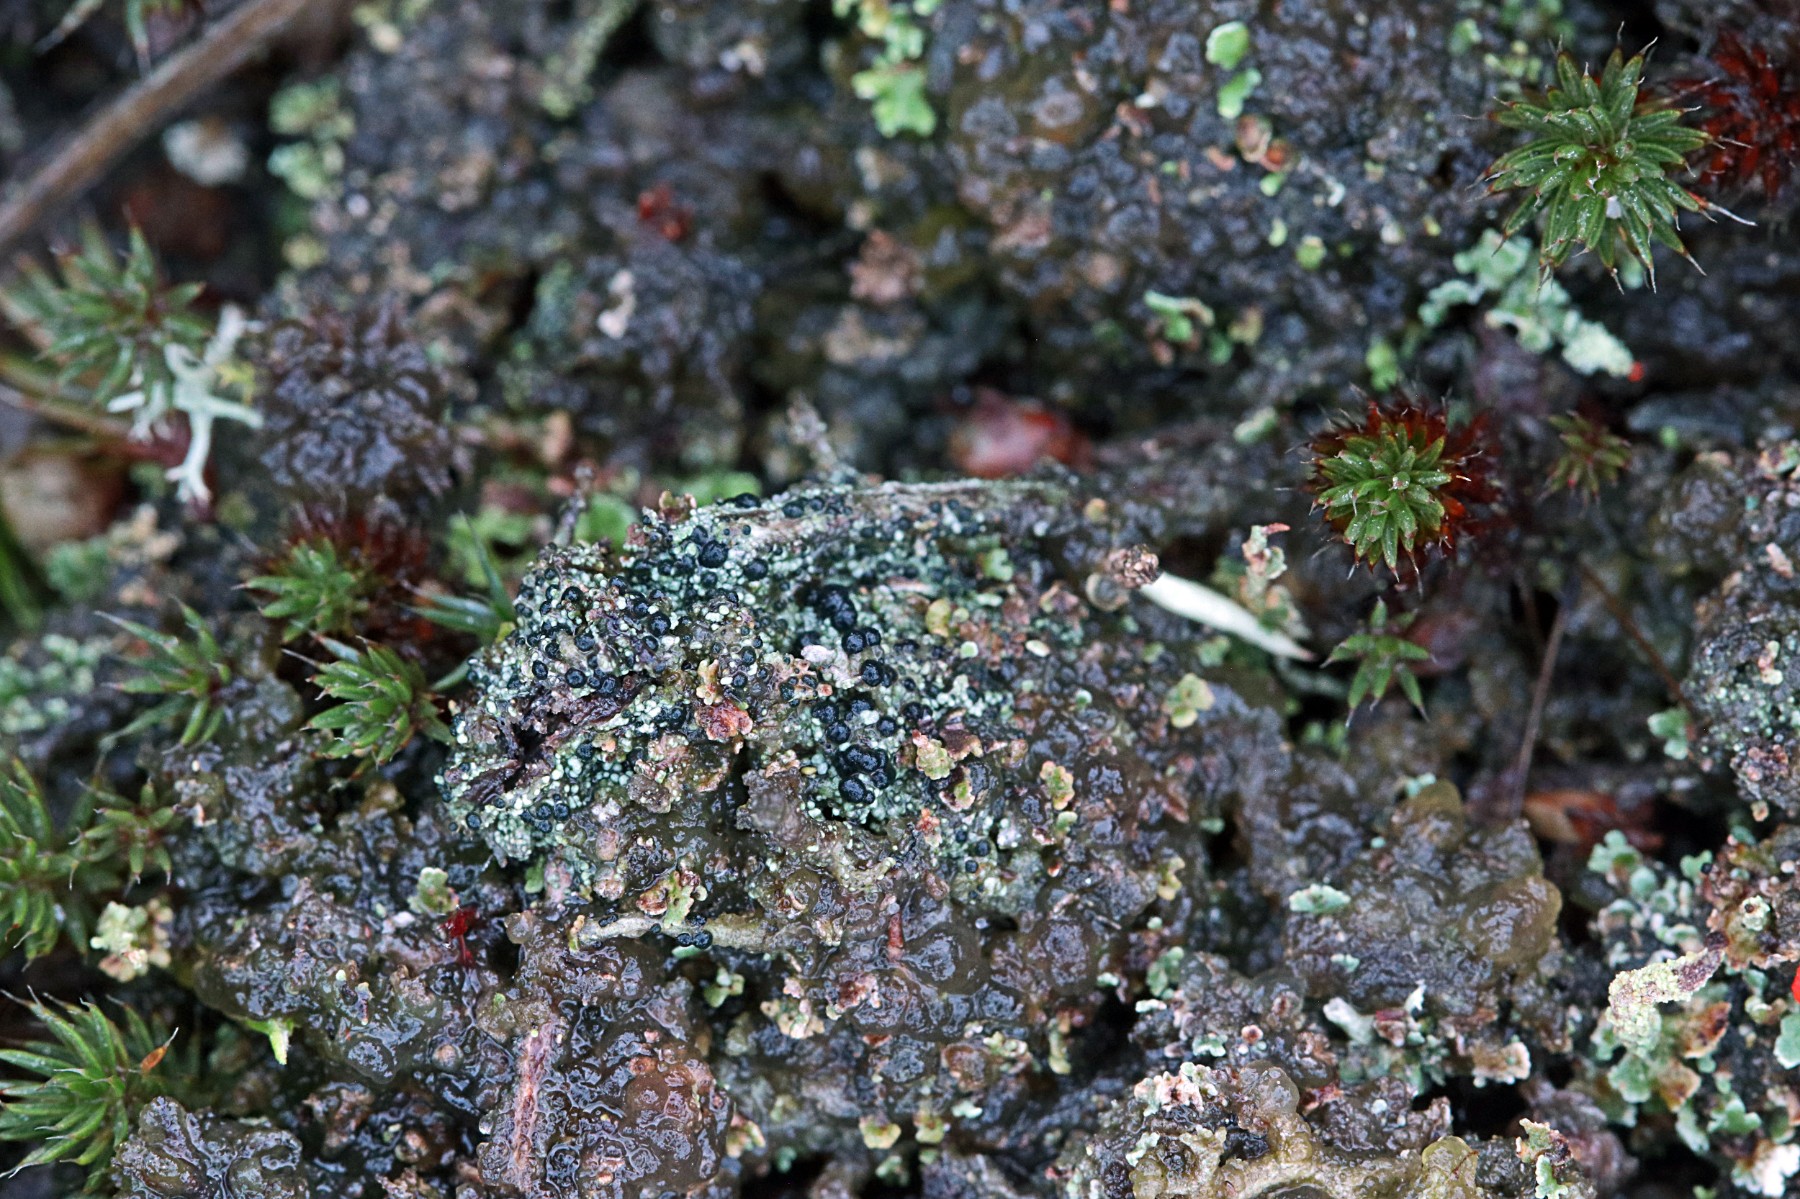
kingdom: Fungi
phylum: Ascomycota
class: Lecanoromycetes
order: Lecanorales
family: Byssolomataceae
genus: Micarea
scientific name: Micarea lignaria
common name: tørve-knaplav
